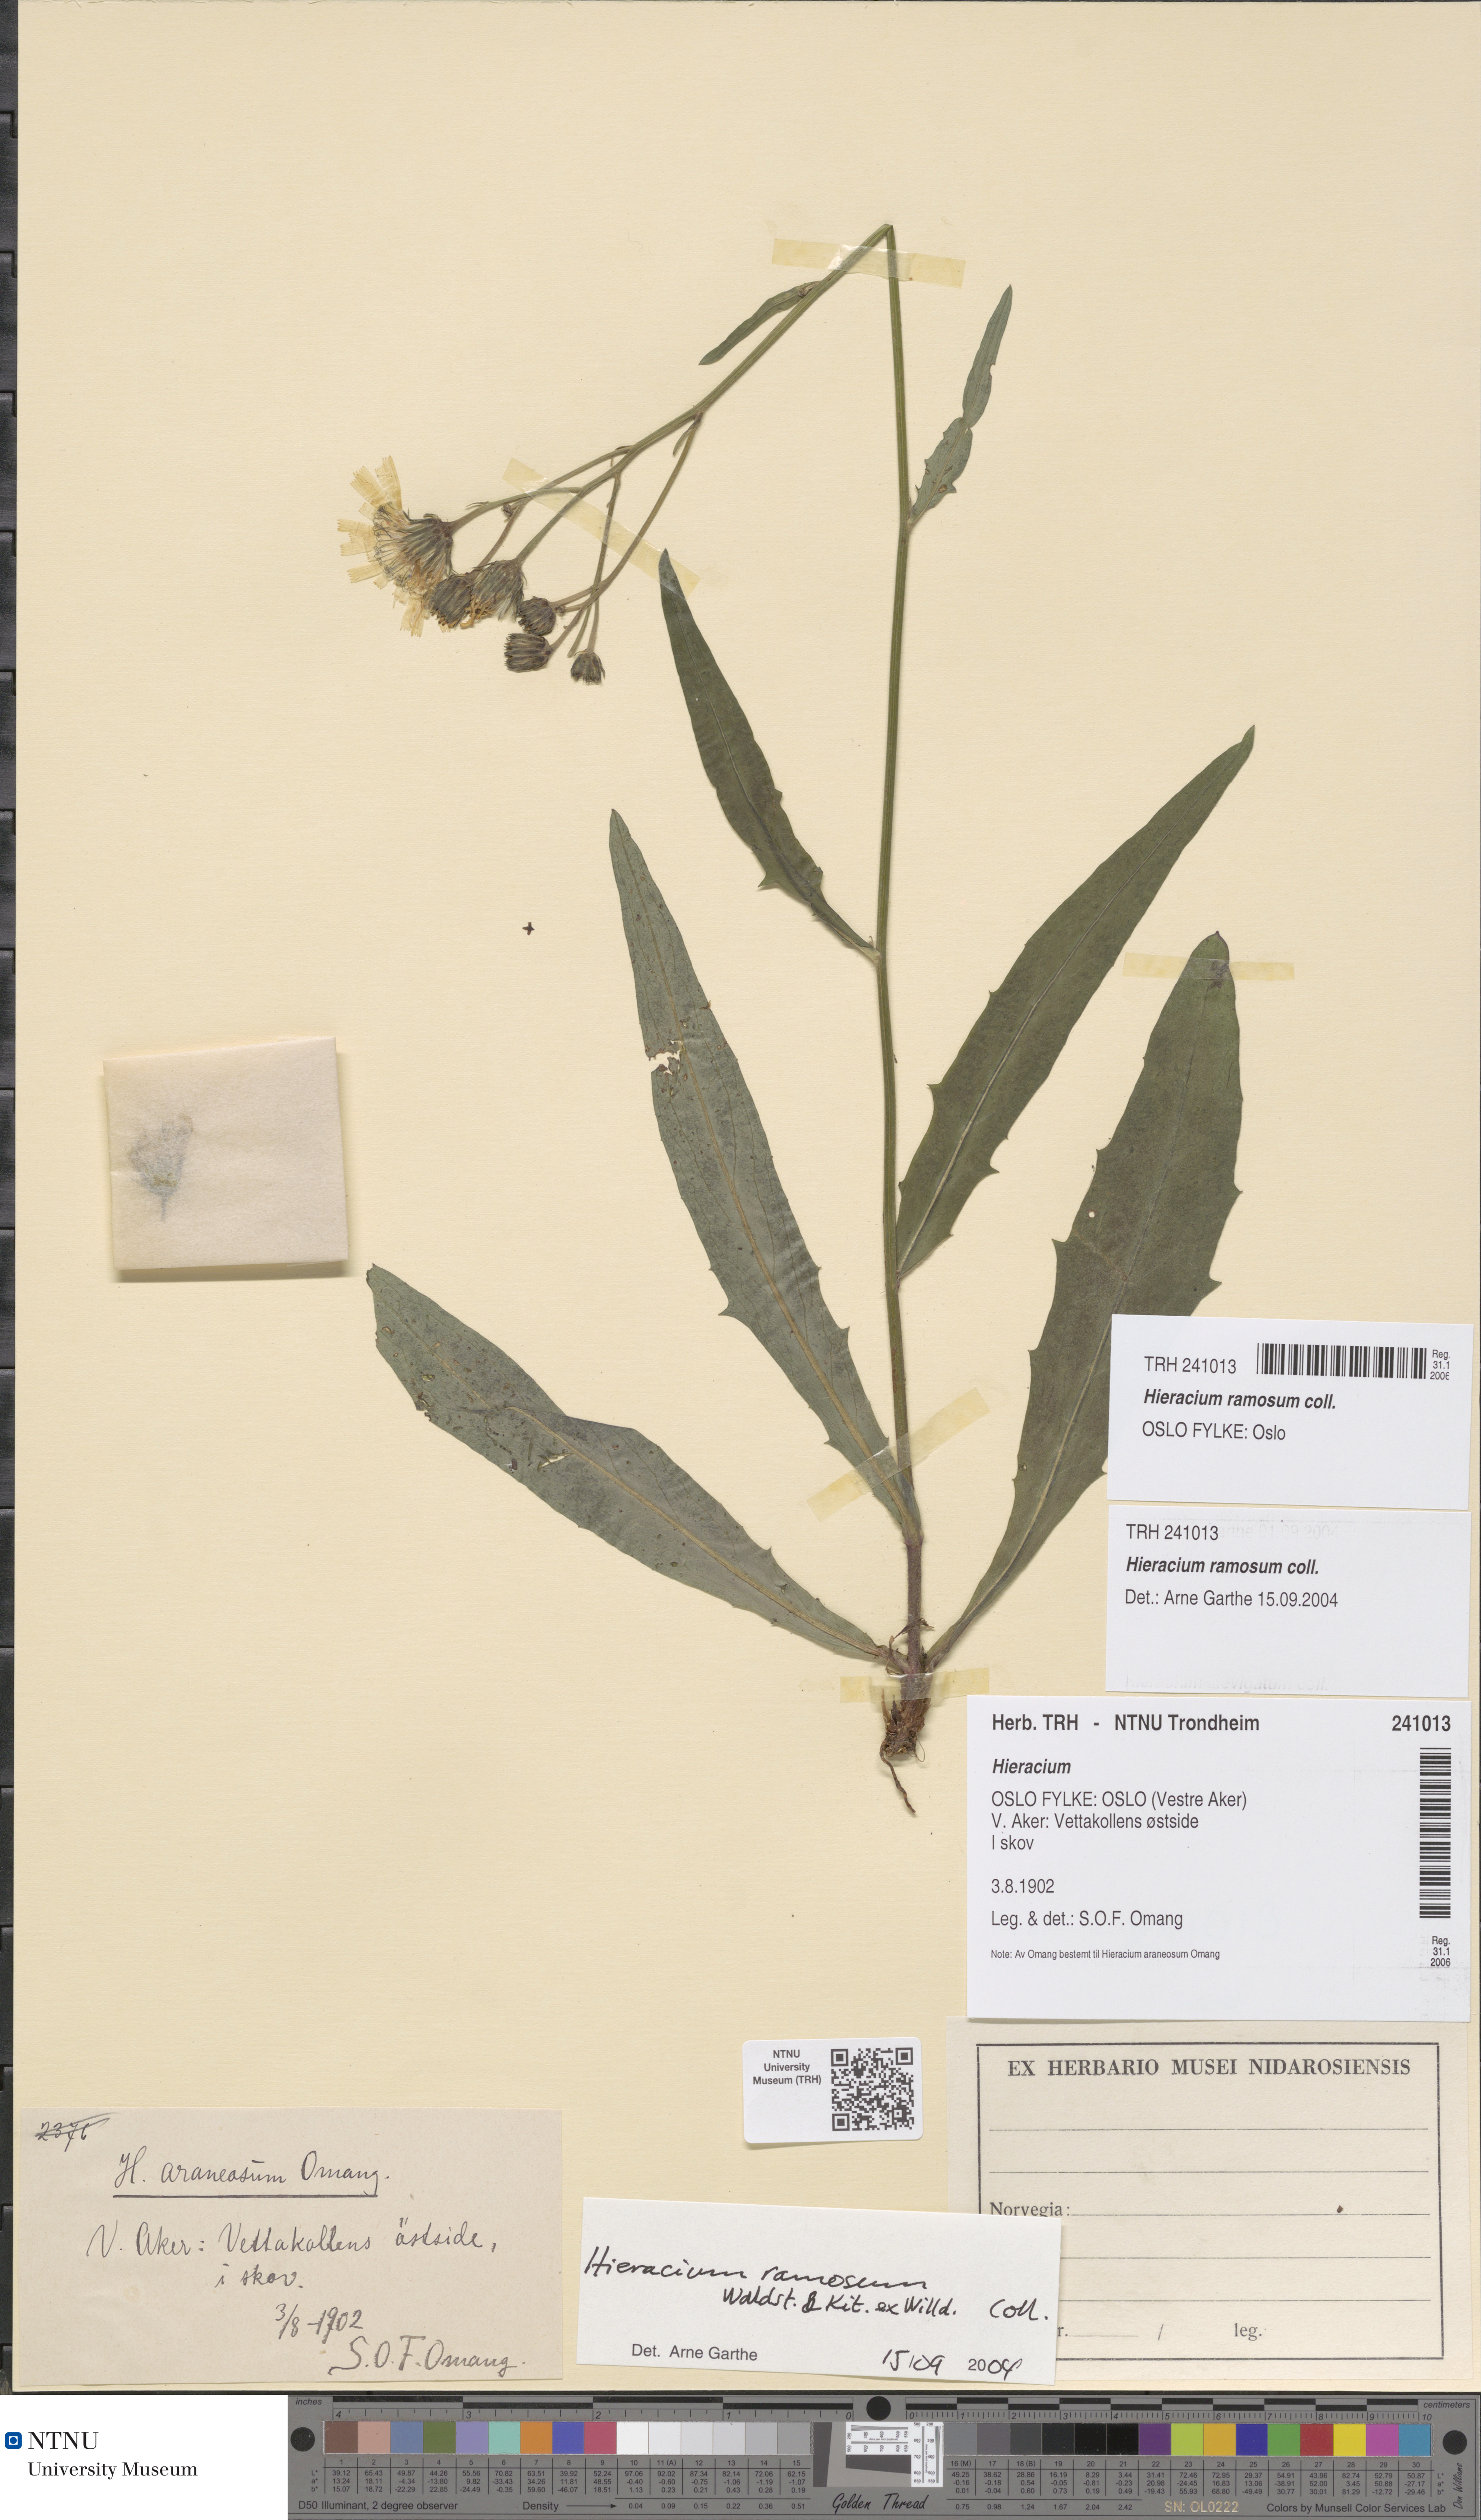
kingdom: Plantae
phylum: Tracheophyta
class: Magnoliopsida
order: Asterales
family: Asteraceae
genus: Hieracium
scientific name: Hieracium ramosum
